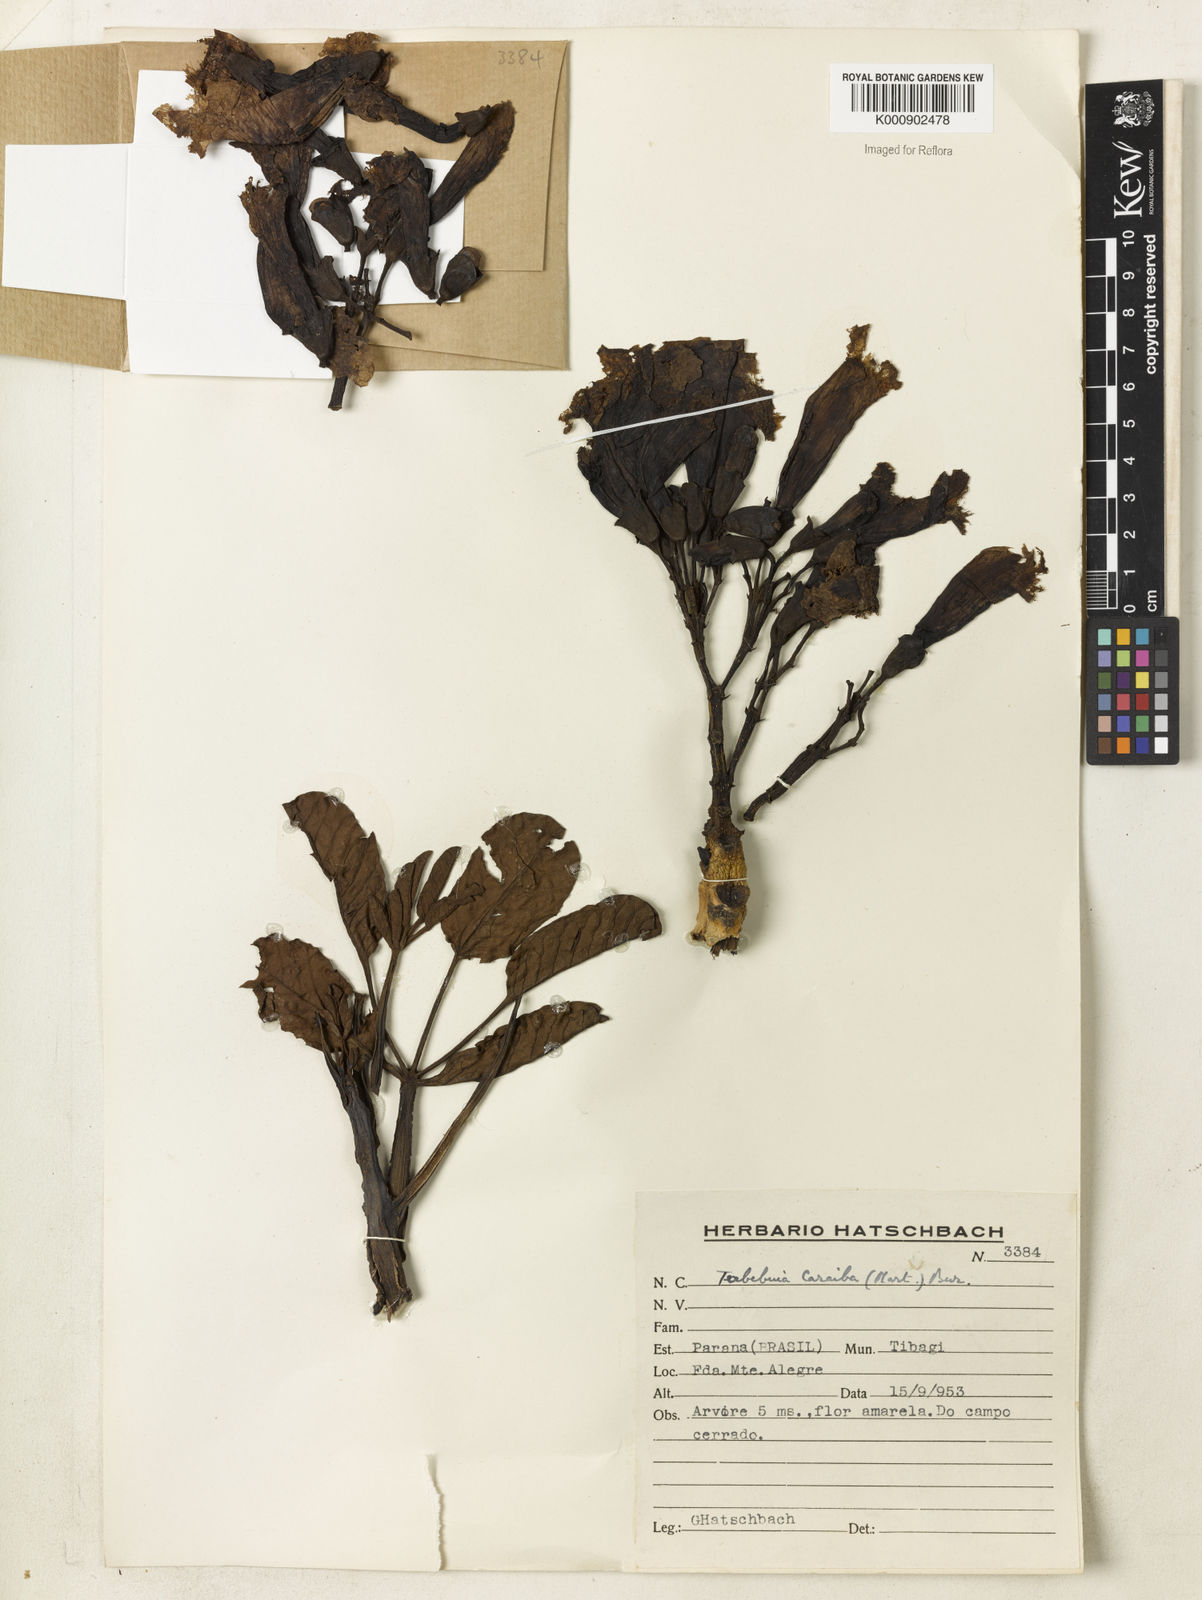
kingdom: Plantae
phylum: Tracheophyta
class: Magnoliopsida
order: Lamiales
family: Bignoniaceae
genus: Tabebuia
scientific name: Tabebuia aurea
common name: Caribbean trumpet-tree
